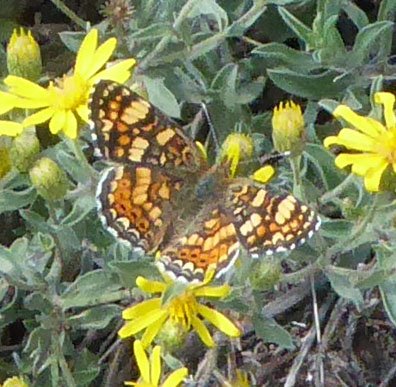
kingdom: Animalia
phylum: Arthropoda
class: Insecta
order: Lepidoptera
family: Nymphalidae
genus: Phyciodes
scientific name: Phyciodes tharos
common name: Field Crescent
